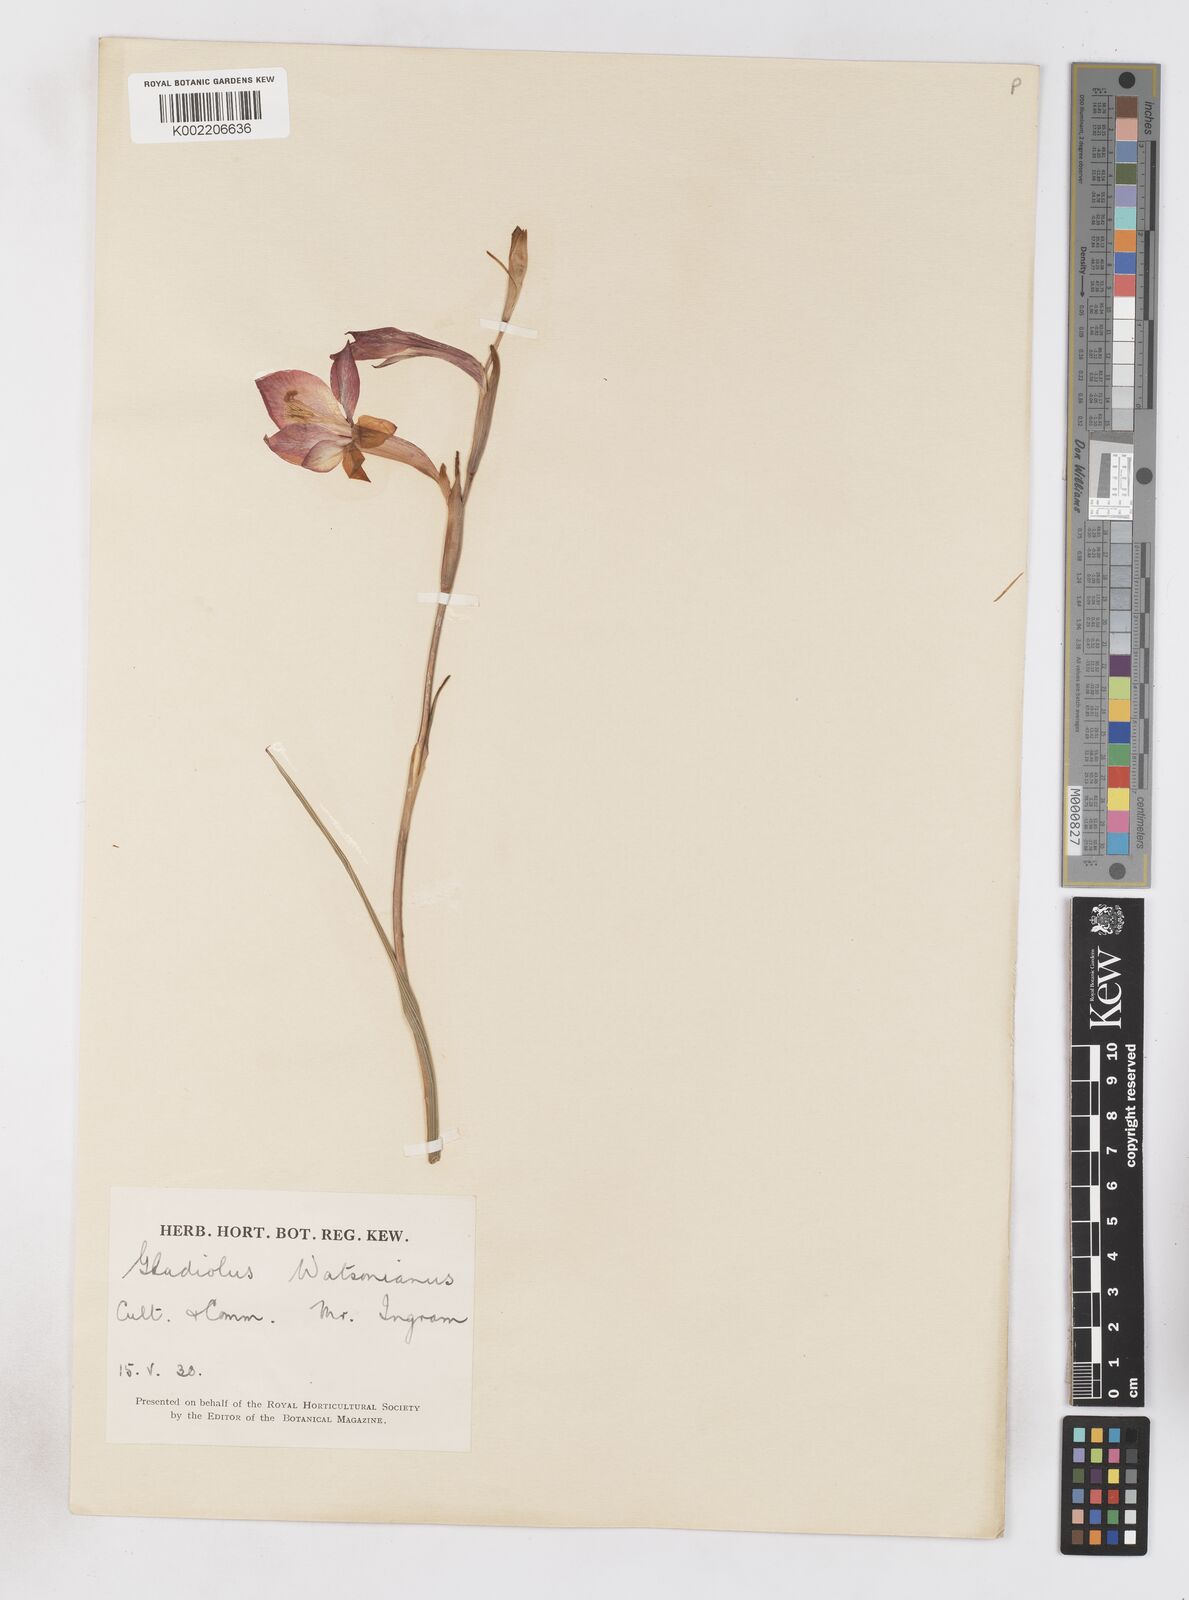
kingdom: Plantae
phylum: Tracheophyta
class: Liliopsida
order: Asparagales
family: Iridaceae
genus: Gladiolus
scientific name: Gladiolus
